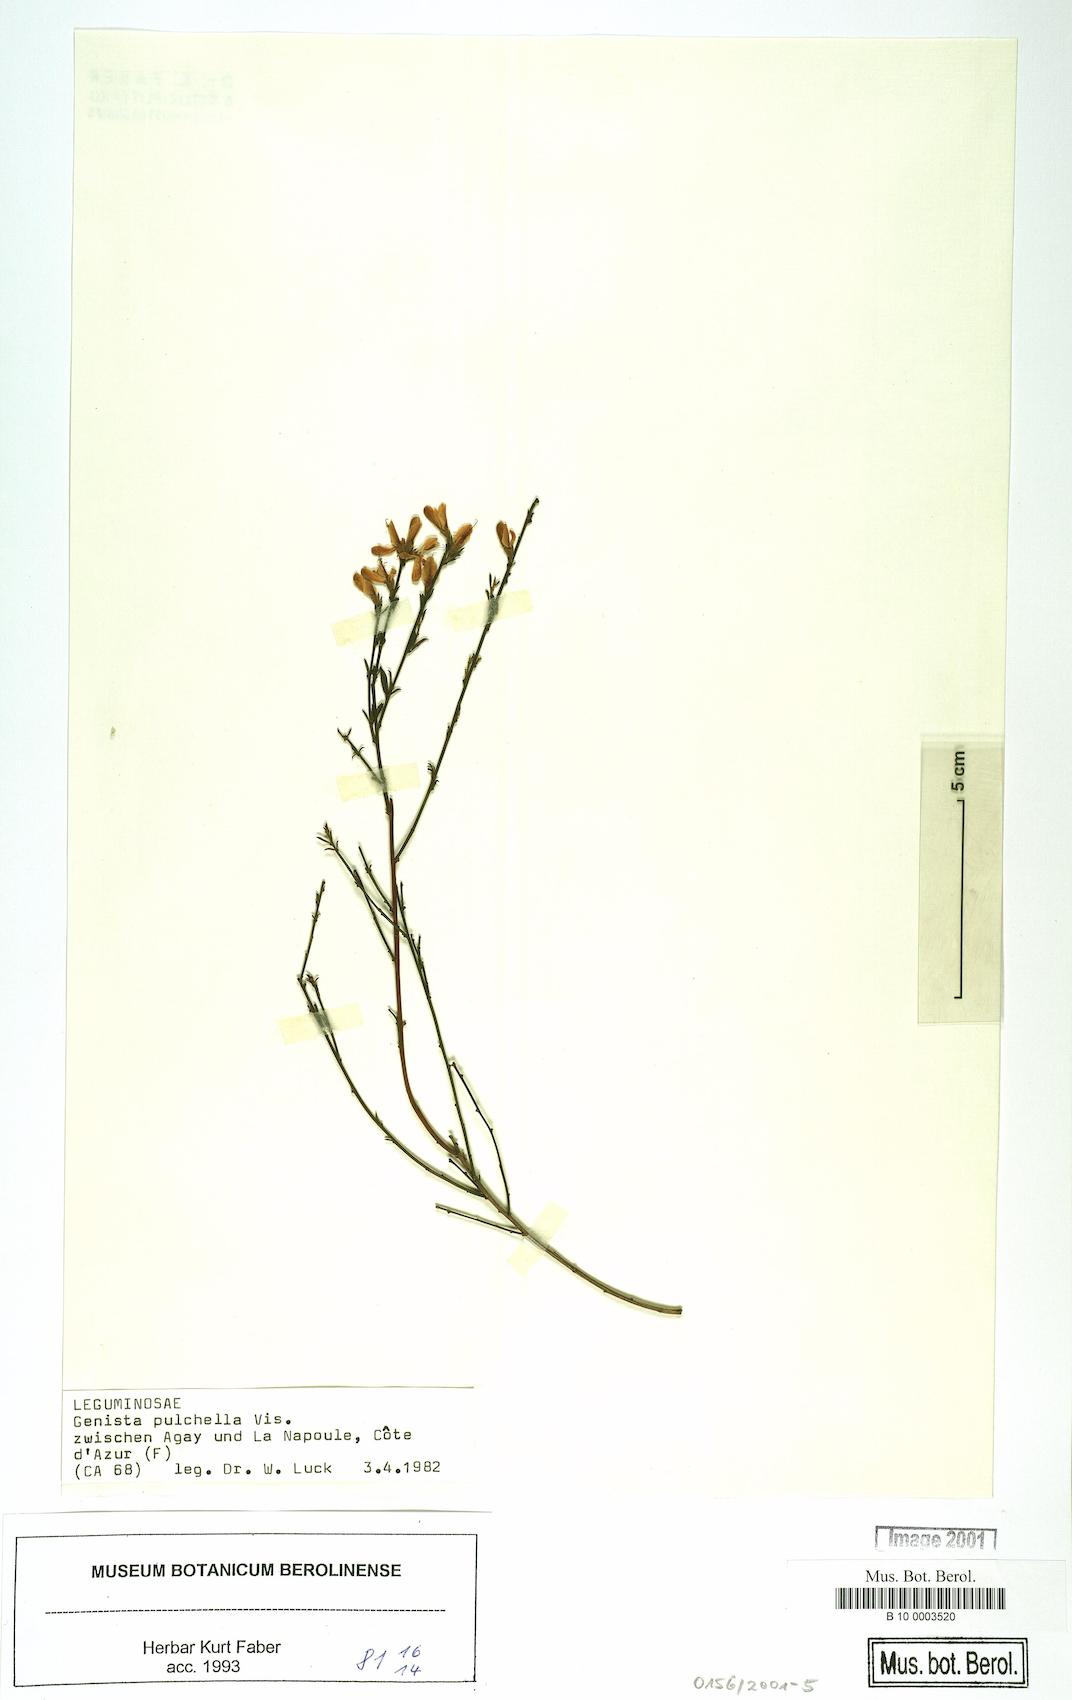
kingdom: Plantae
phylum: Tracheophyta
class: Magnoliopsida
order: Fabales
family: Fabaceae
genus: Genista
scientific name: Genista pulchella
